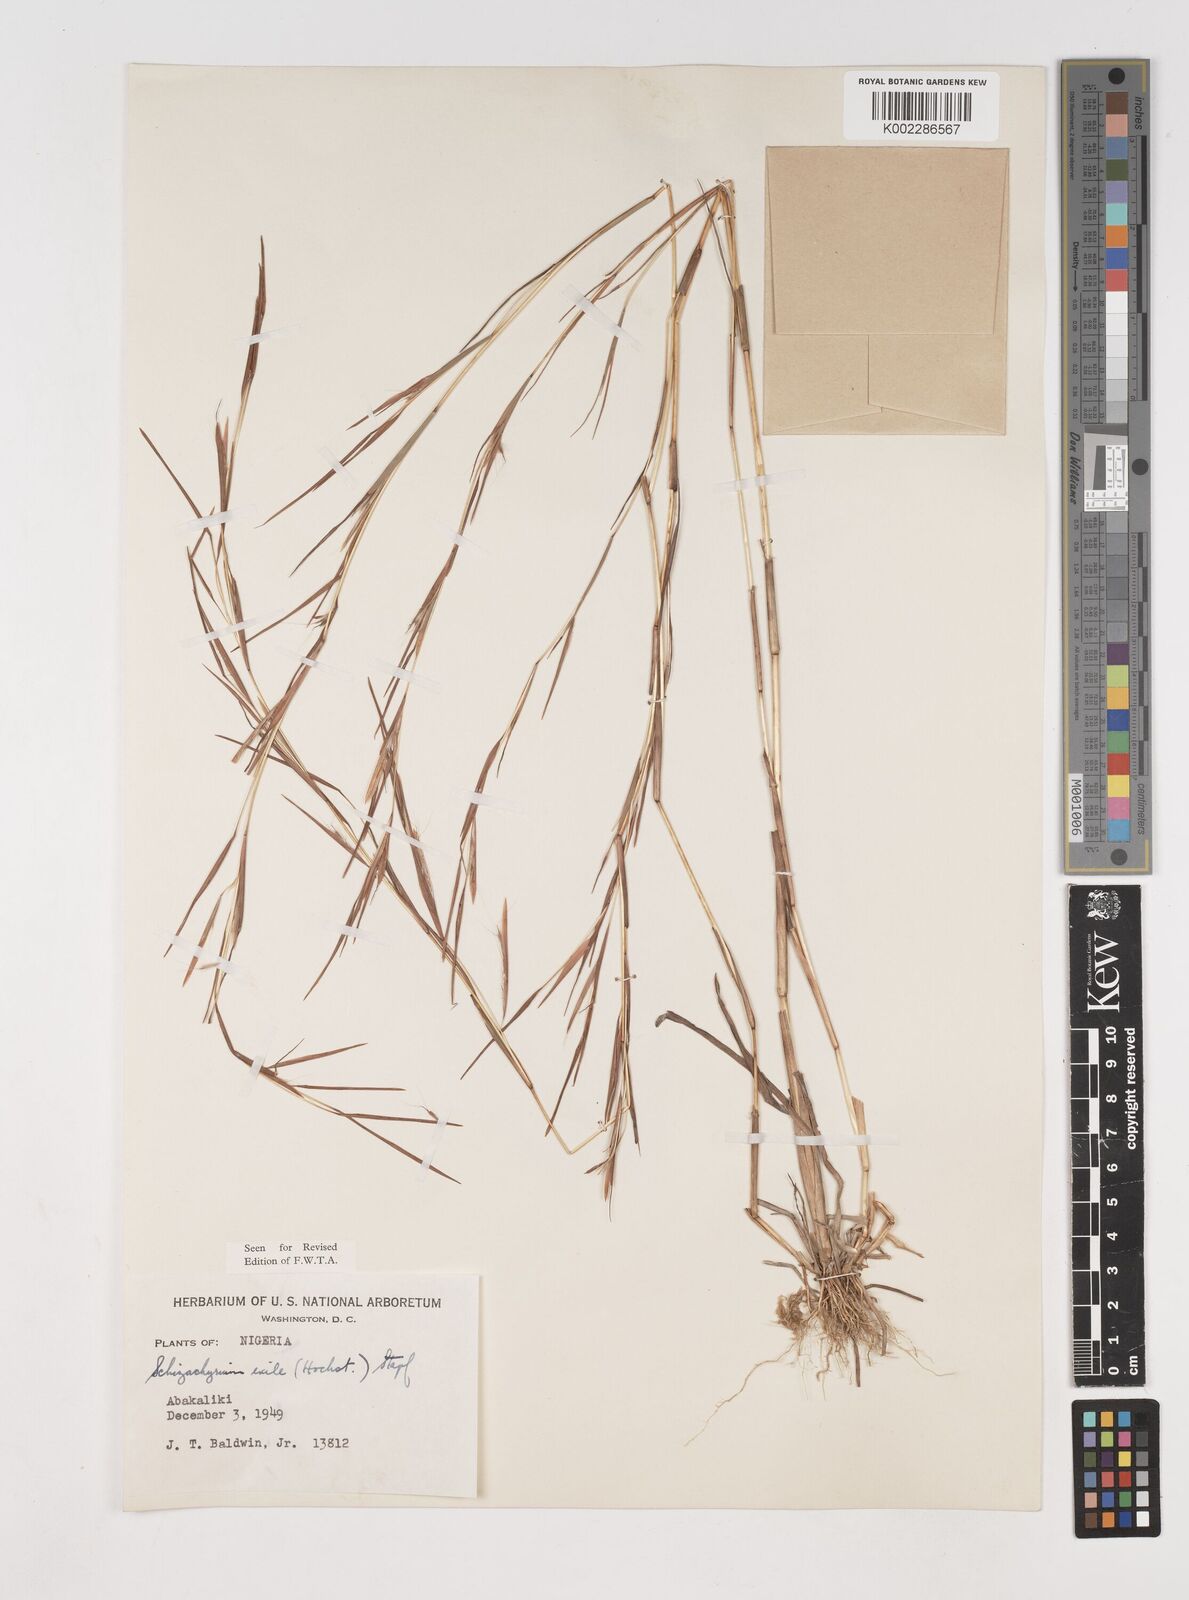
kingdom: Plantae
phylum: Tracheophyta
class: Liliopsida
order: Poales
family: Poaceae
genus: Schizachyrium
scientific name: Schizachyrium exile
